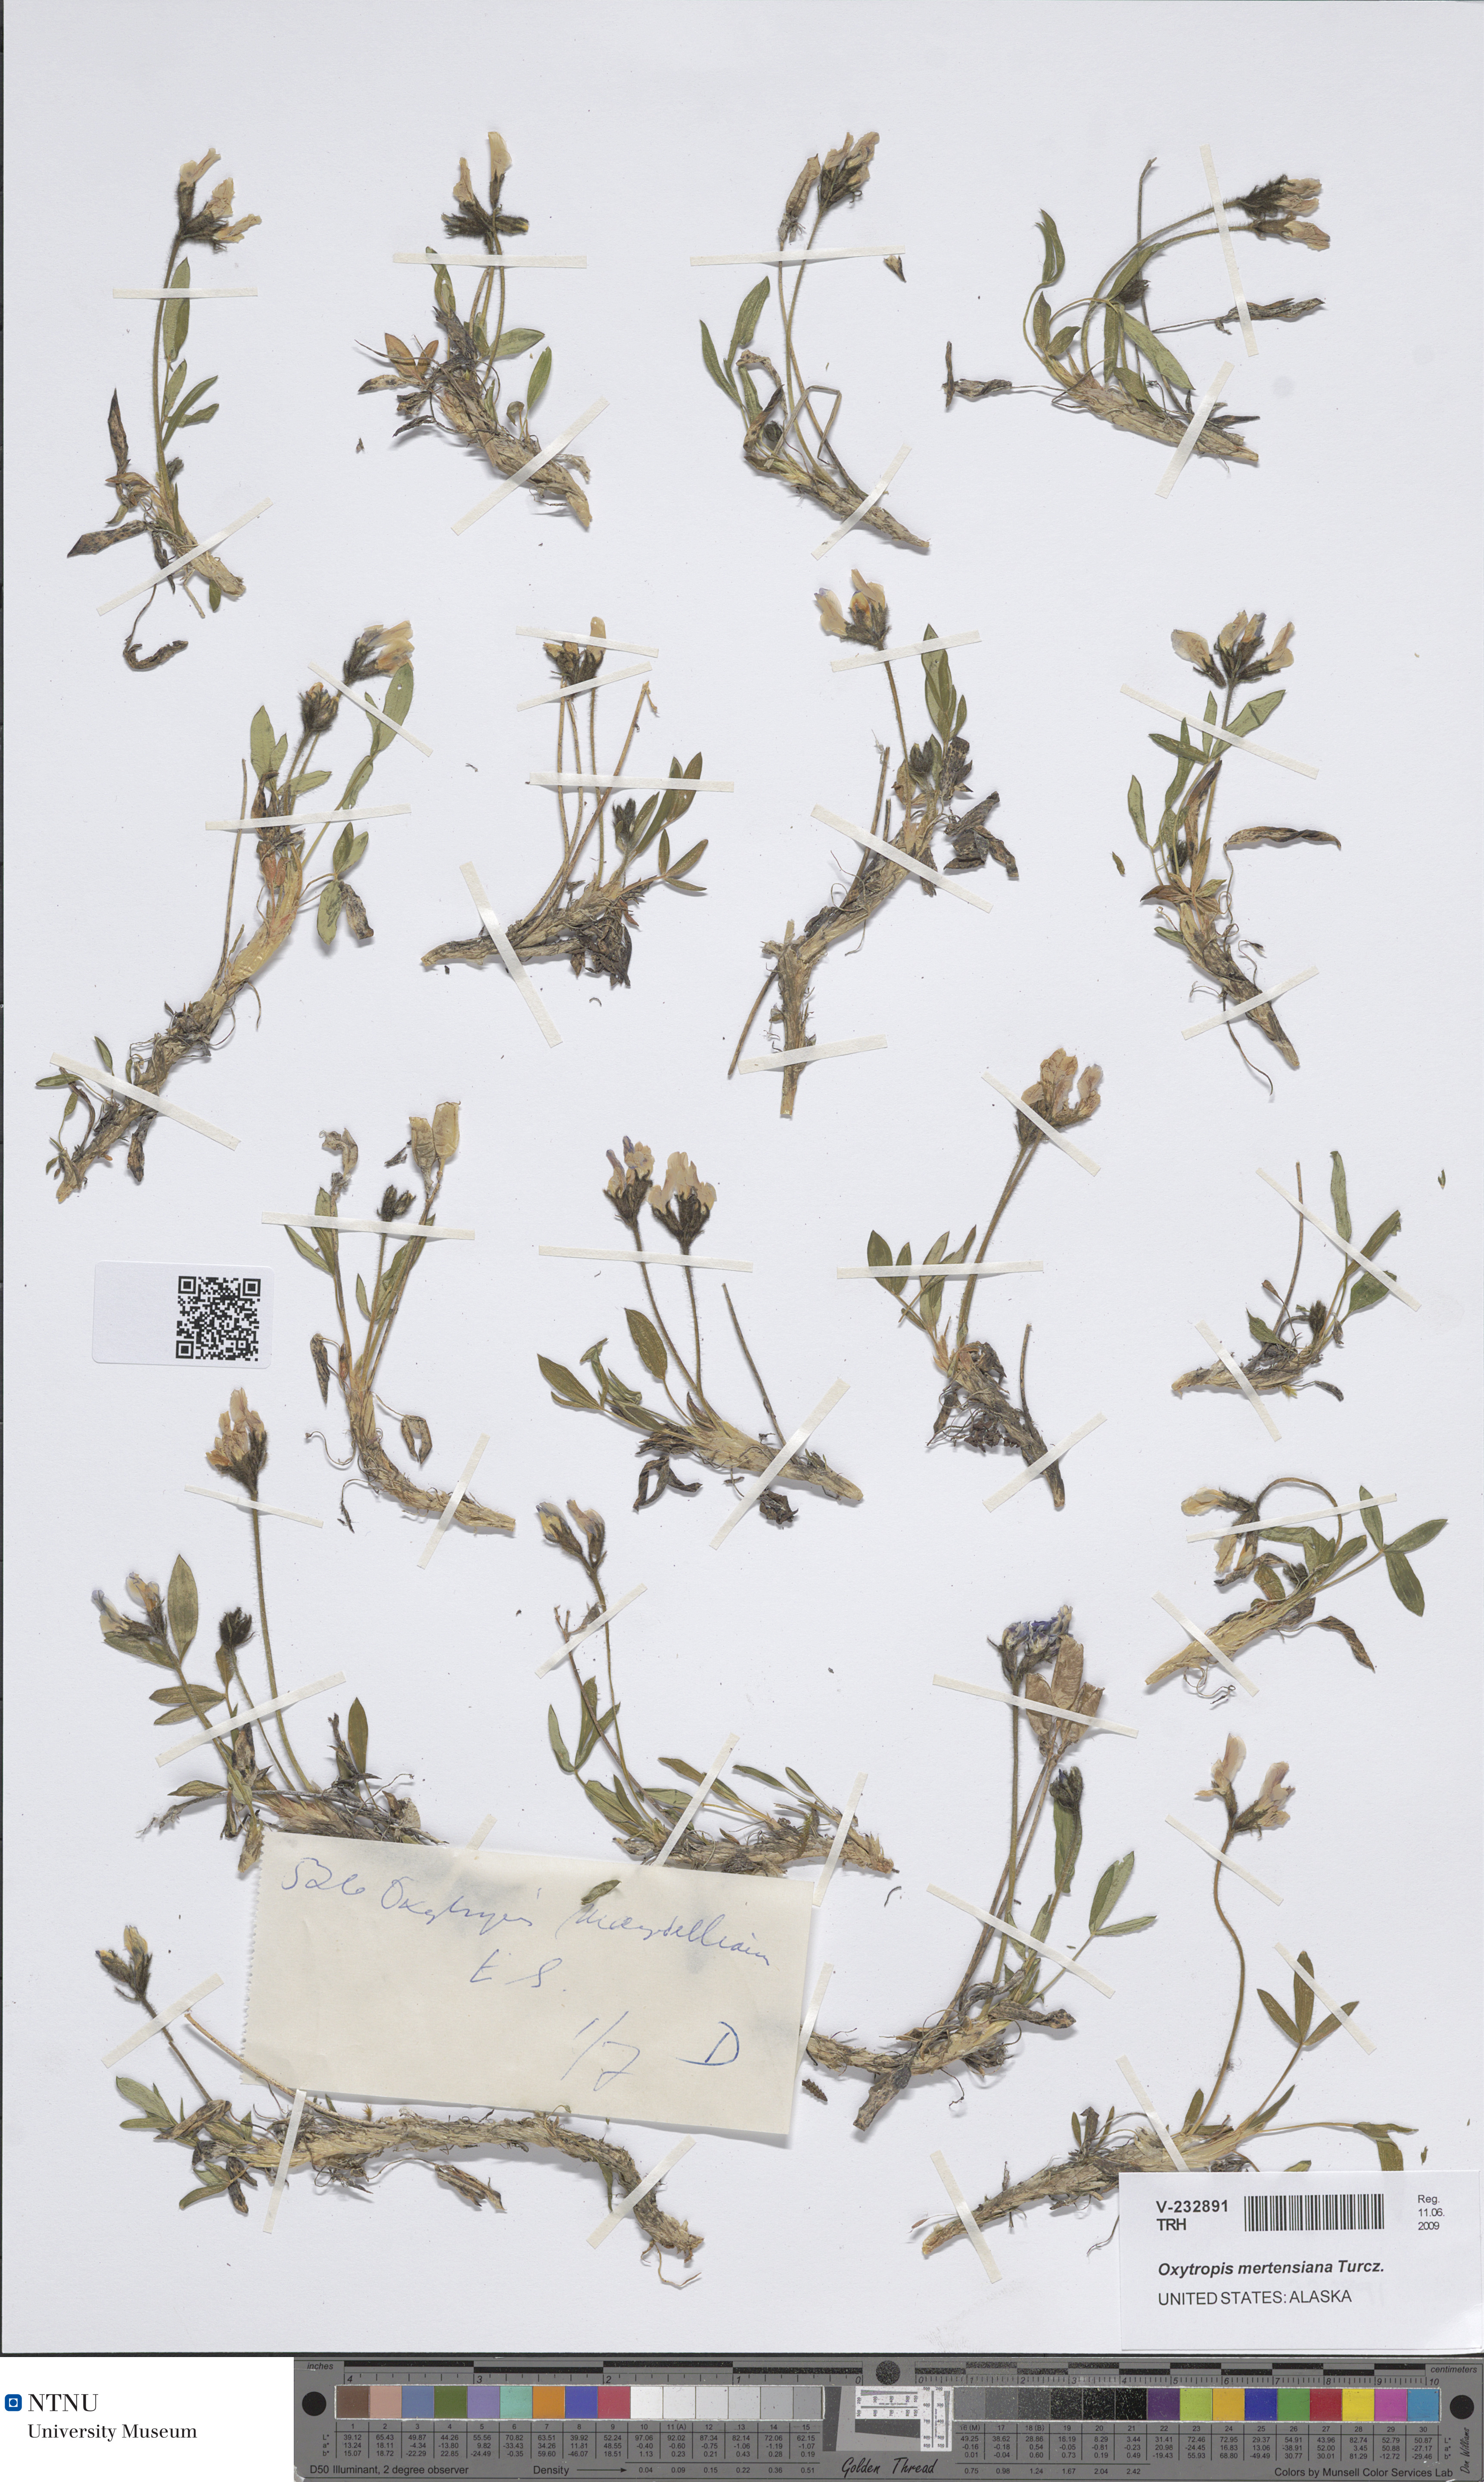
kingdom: Plantae
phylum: Tracheophyta
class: Magnoliopsida
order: Fabales
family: Fabaceae
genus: Oxytropis
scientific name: Oxytropis mertensiana
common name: Mertens' locoweed
